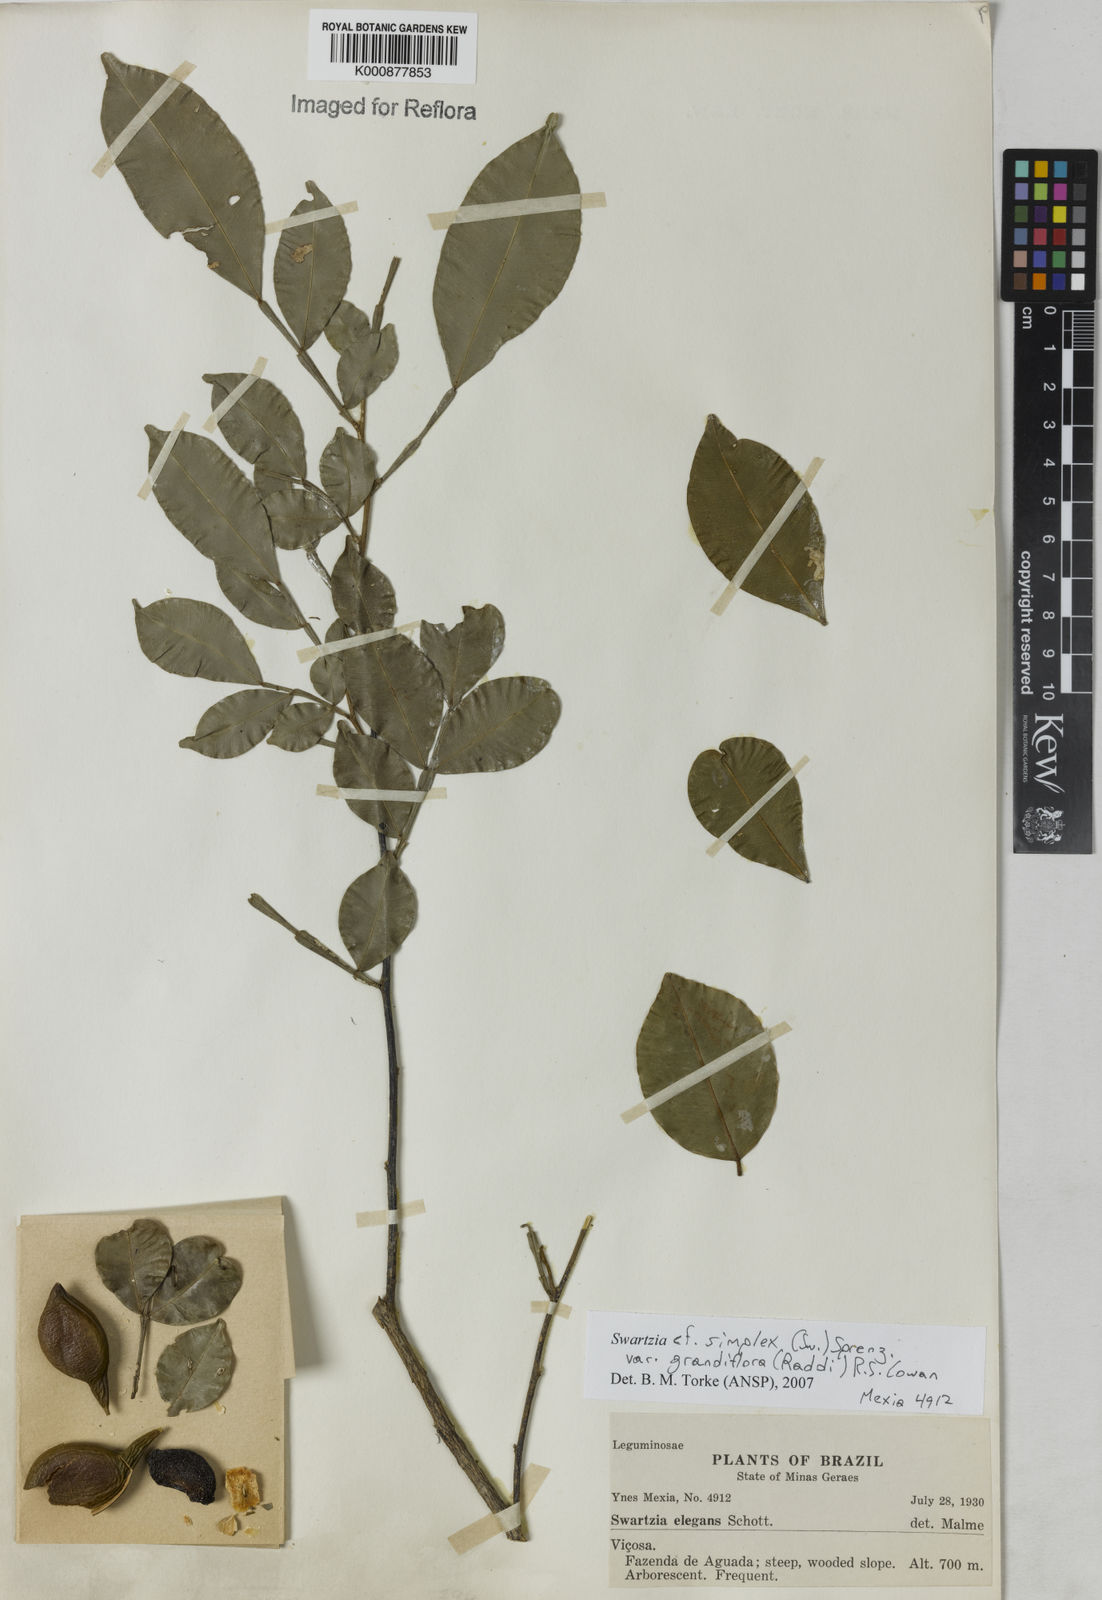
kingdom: Plantae
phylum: Tracheophyta
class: Magnoliopsida
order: Fabales
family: Fabaceae
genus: Swartzia
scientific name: Swartzia simplex
